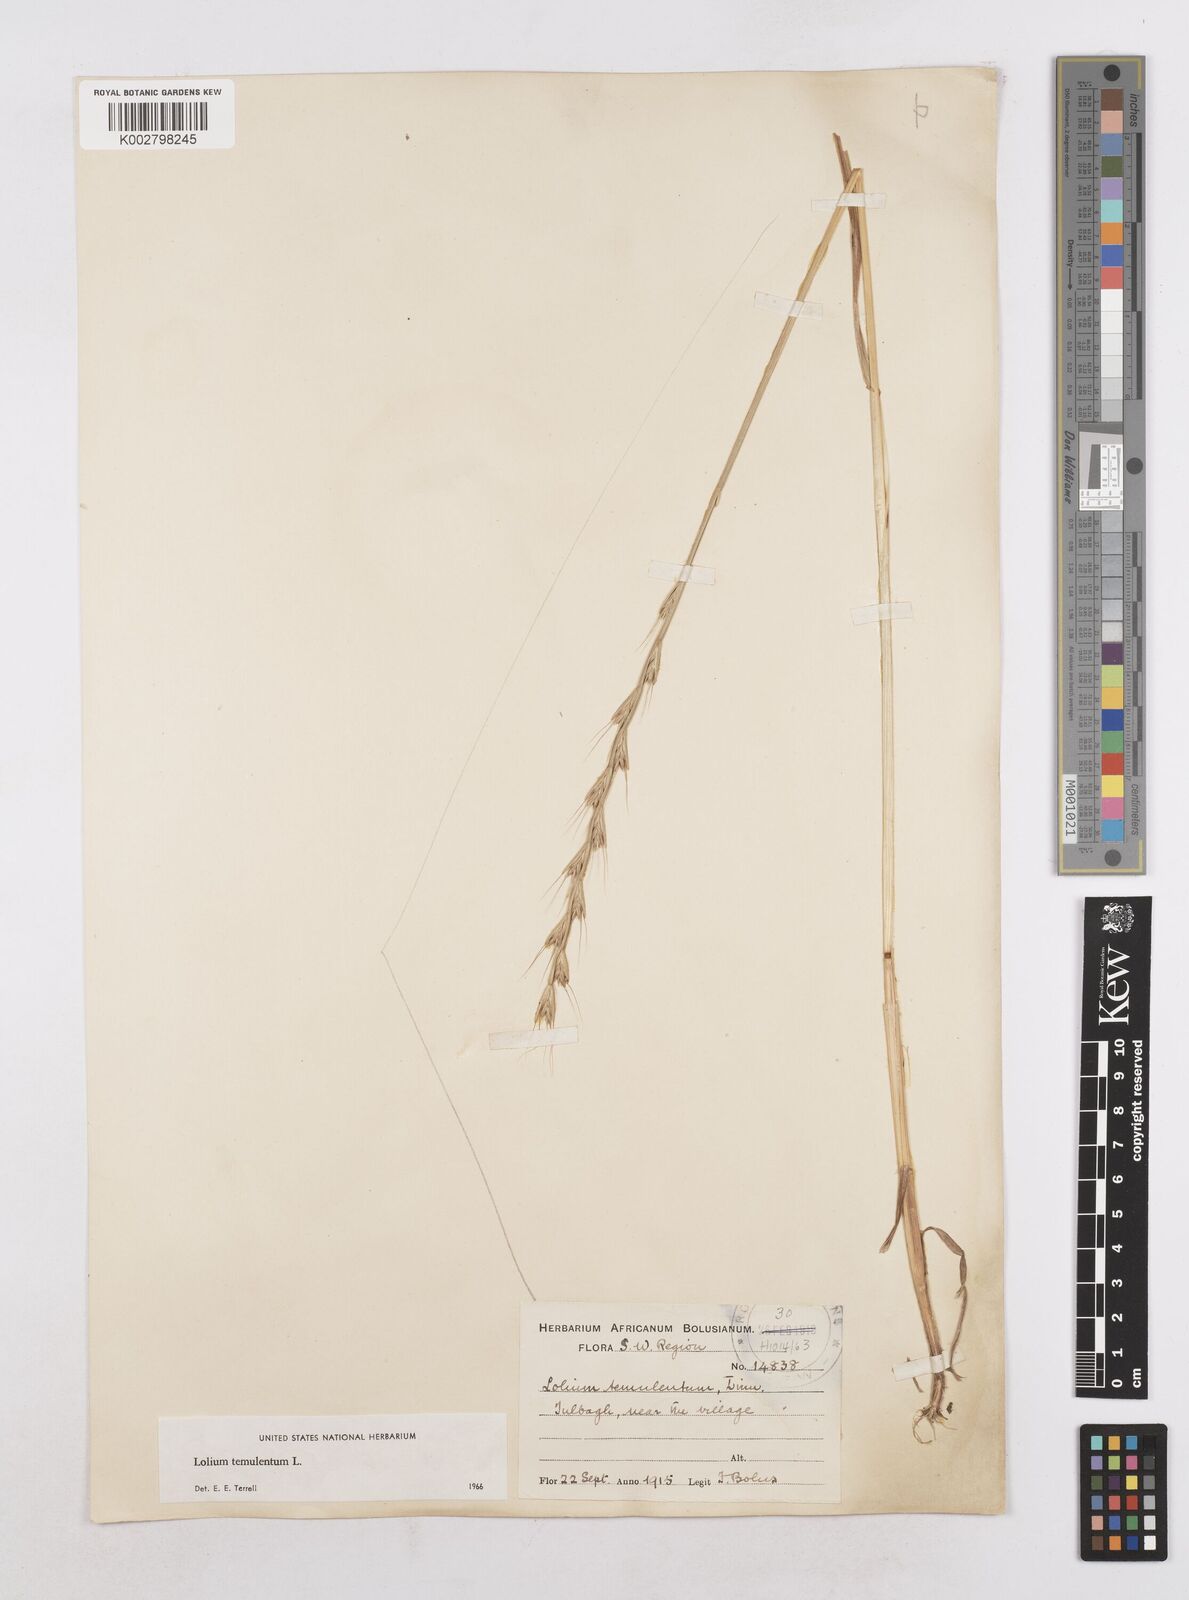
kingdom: Plantae
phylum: Tracheophyta
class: Liliopsida
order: Poales
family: Poaceae
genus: Lolium
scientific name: Lolium temulentum
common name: Darnel
